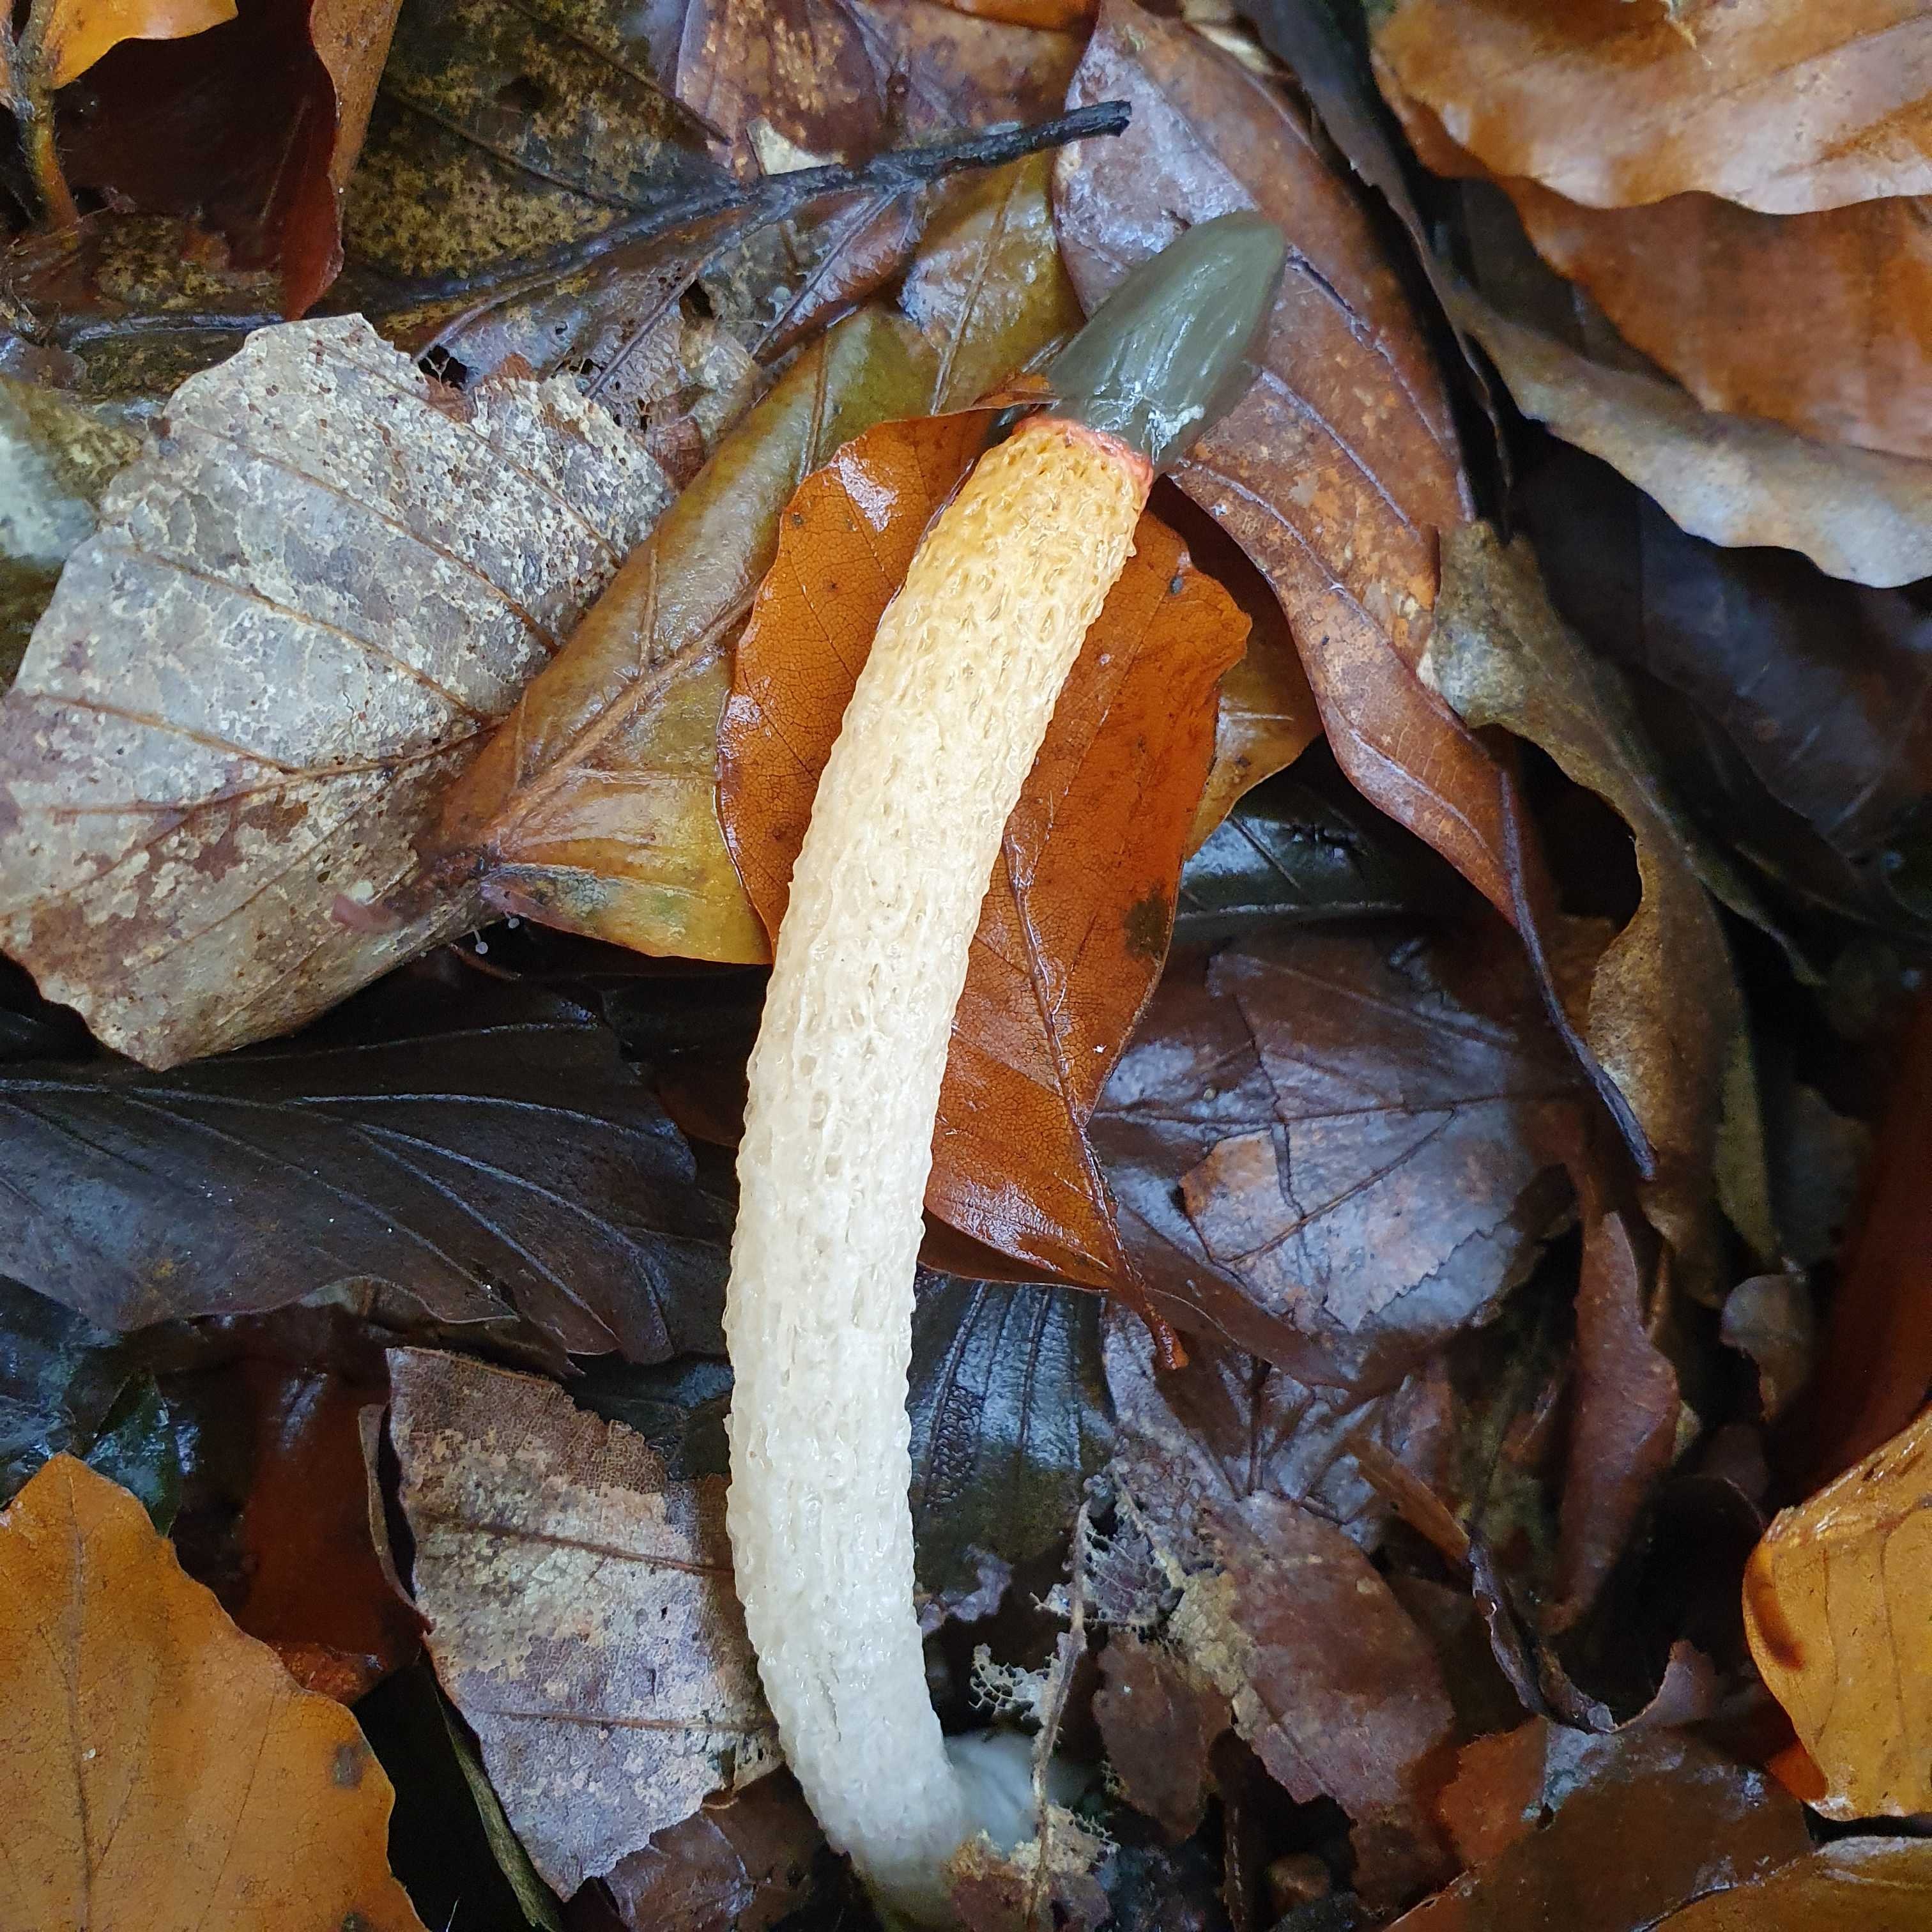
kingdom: Fungi
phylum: Basidiomycota
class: Agaricomycetes
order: Phallales
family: Phallaceae
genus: Mutinus
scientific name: Mutinus caninus
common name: hunde-stinksvamp
